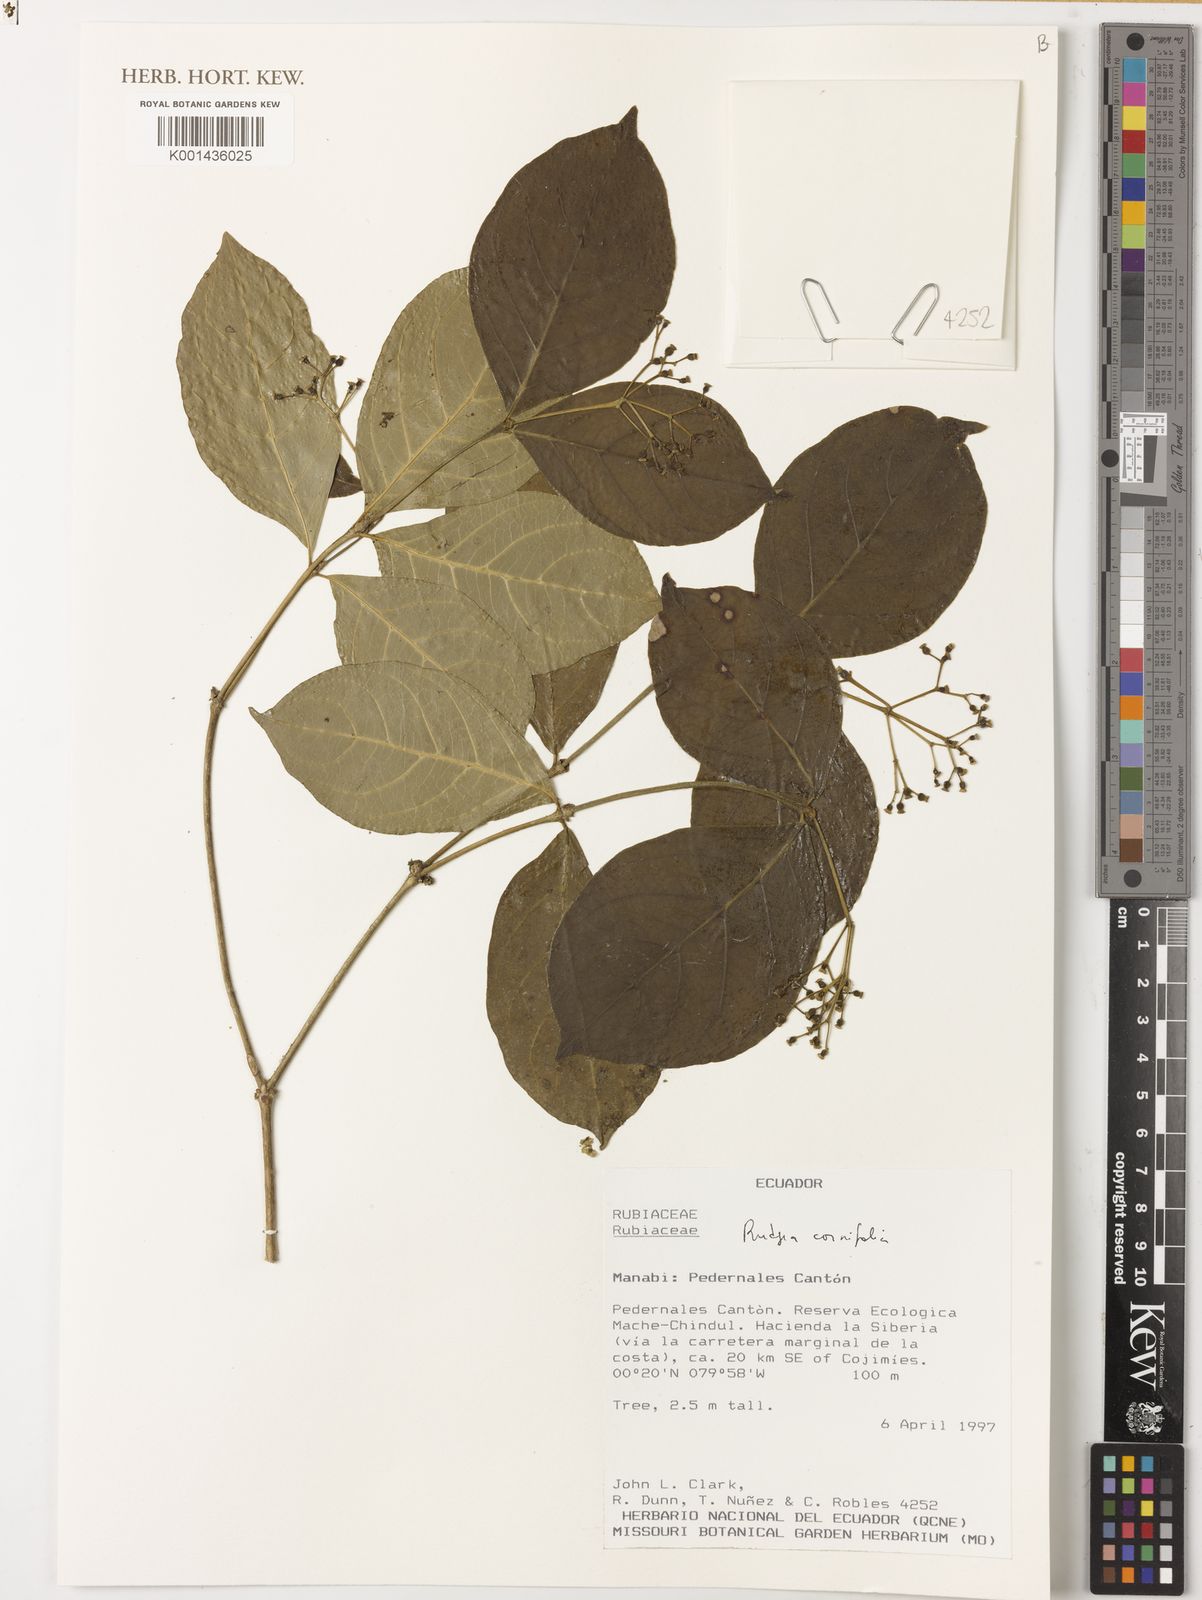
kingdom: Plantae
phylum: Tracheophyta
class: Magnoliopsida
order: Gentianales
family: Rubiaceae
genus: Rudgea
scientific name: Rudgea cornifolia
